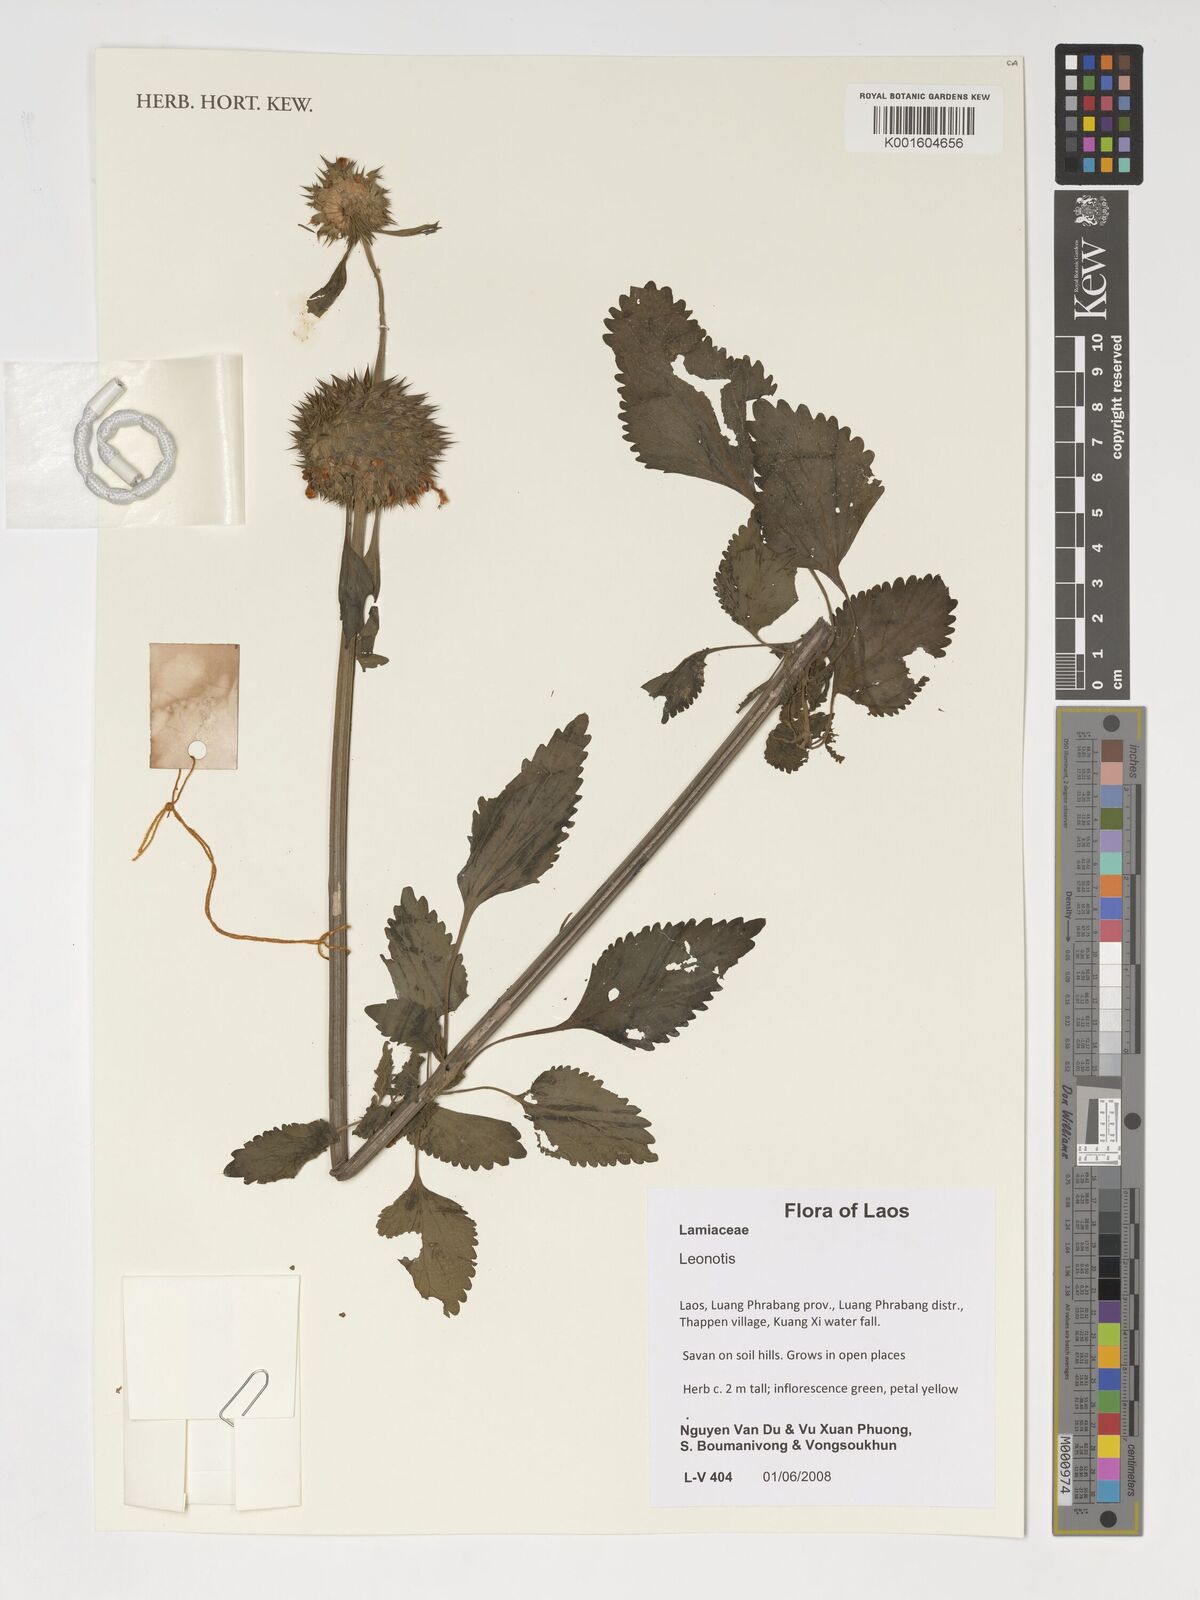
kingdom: Plantae
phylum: Tracheophyta
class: Magnoliopsida
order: Lamiales
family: Lamiaceae
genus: Leonotis
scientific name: Leonotis
